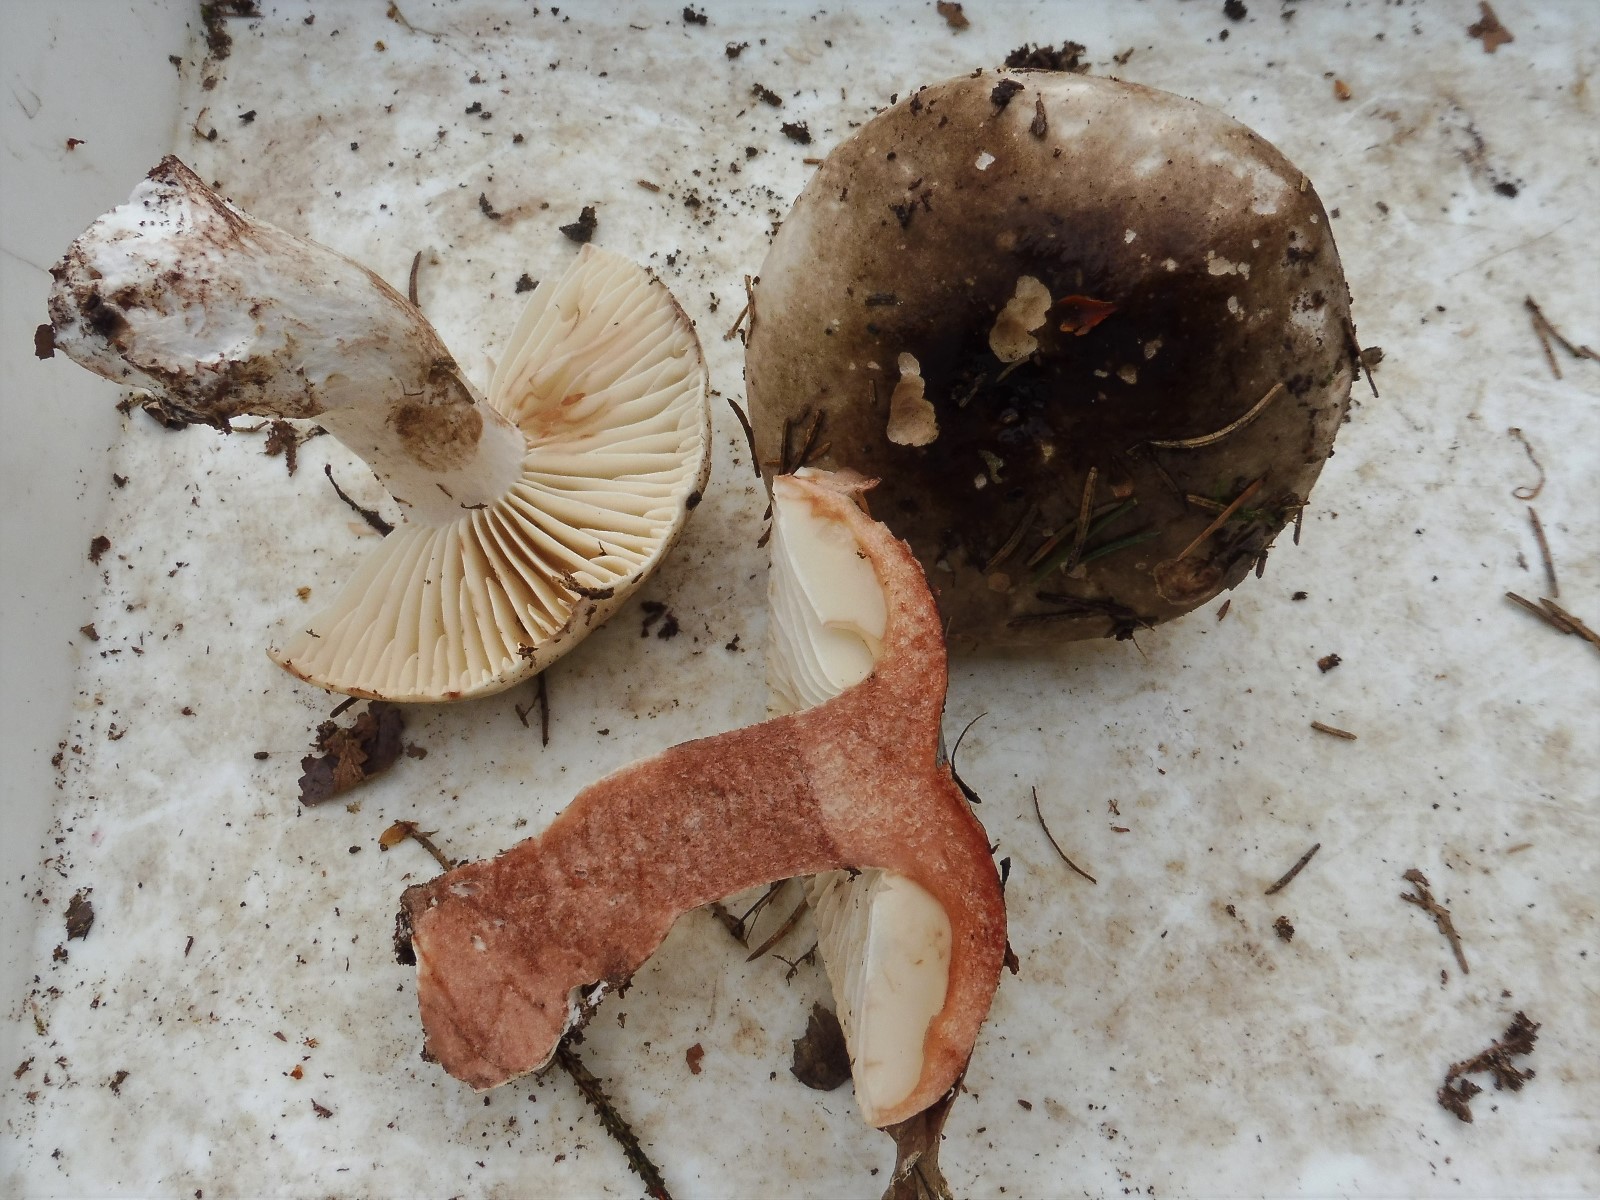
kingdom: Fungi
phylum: Basidiomycota
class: Agaricomycetes
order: Russulales
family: Russulaceae
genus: Russula
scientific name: Russula adusta
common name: sværtende skørhat
